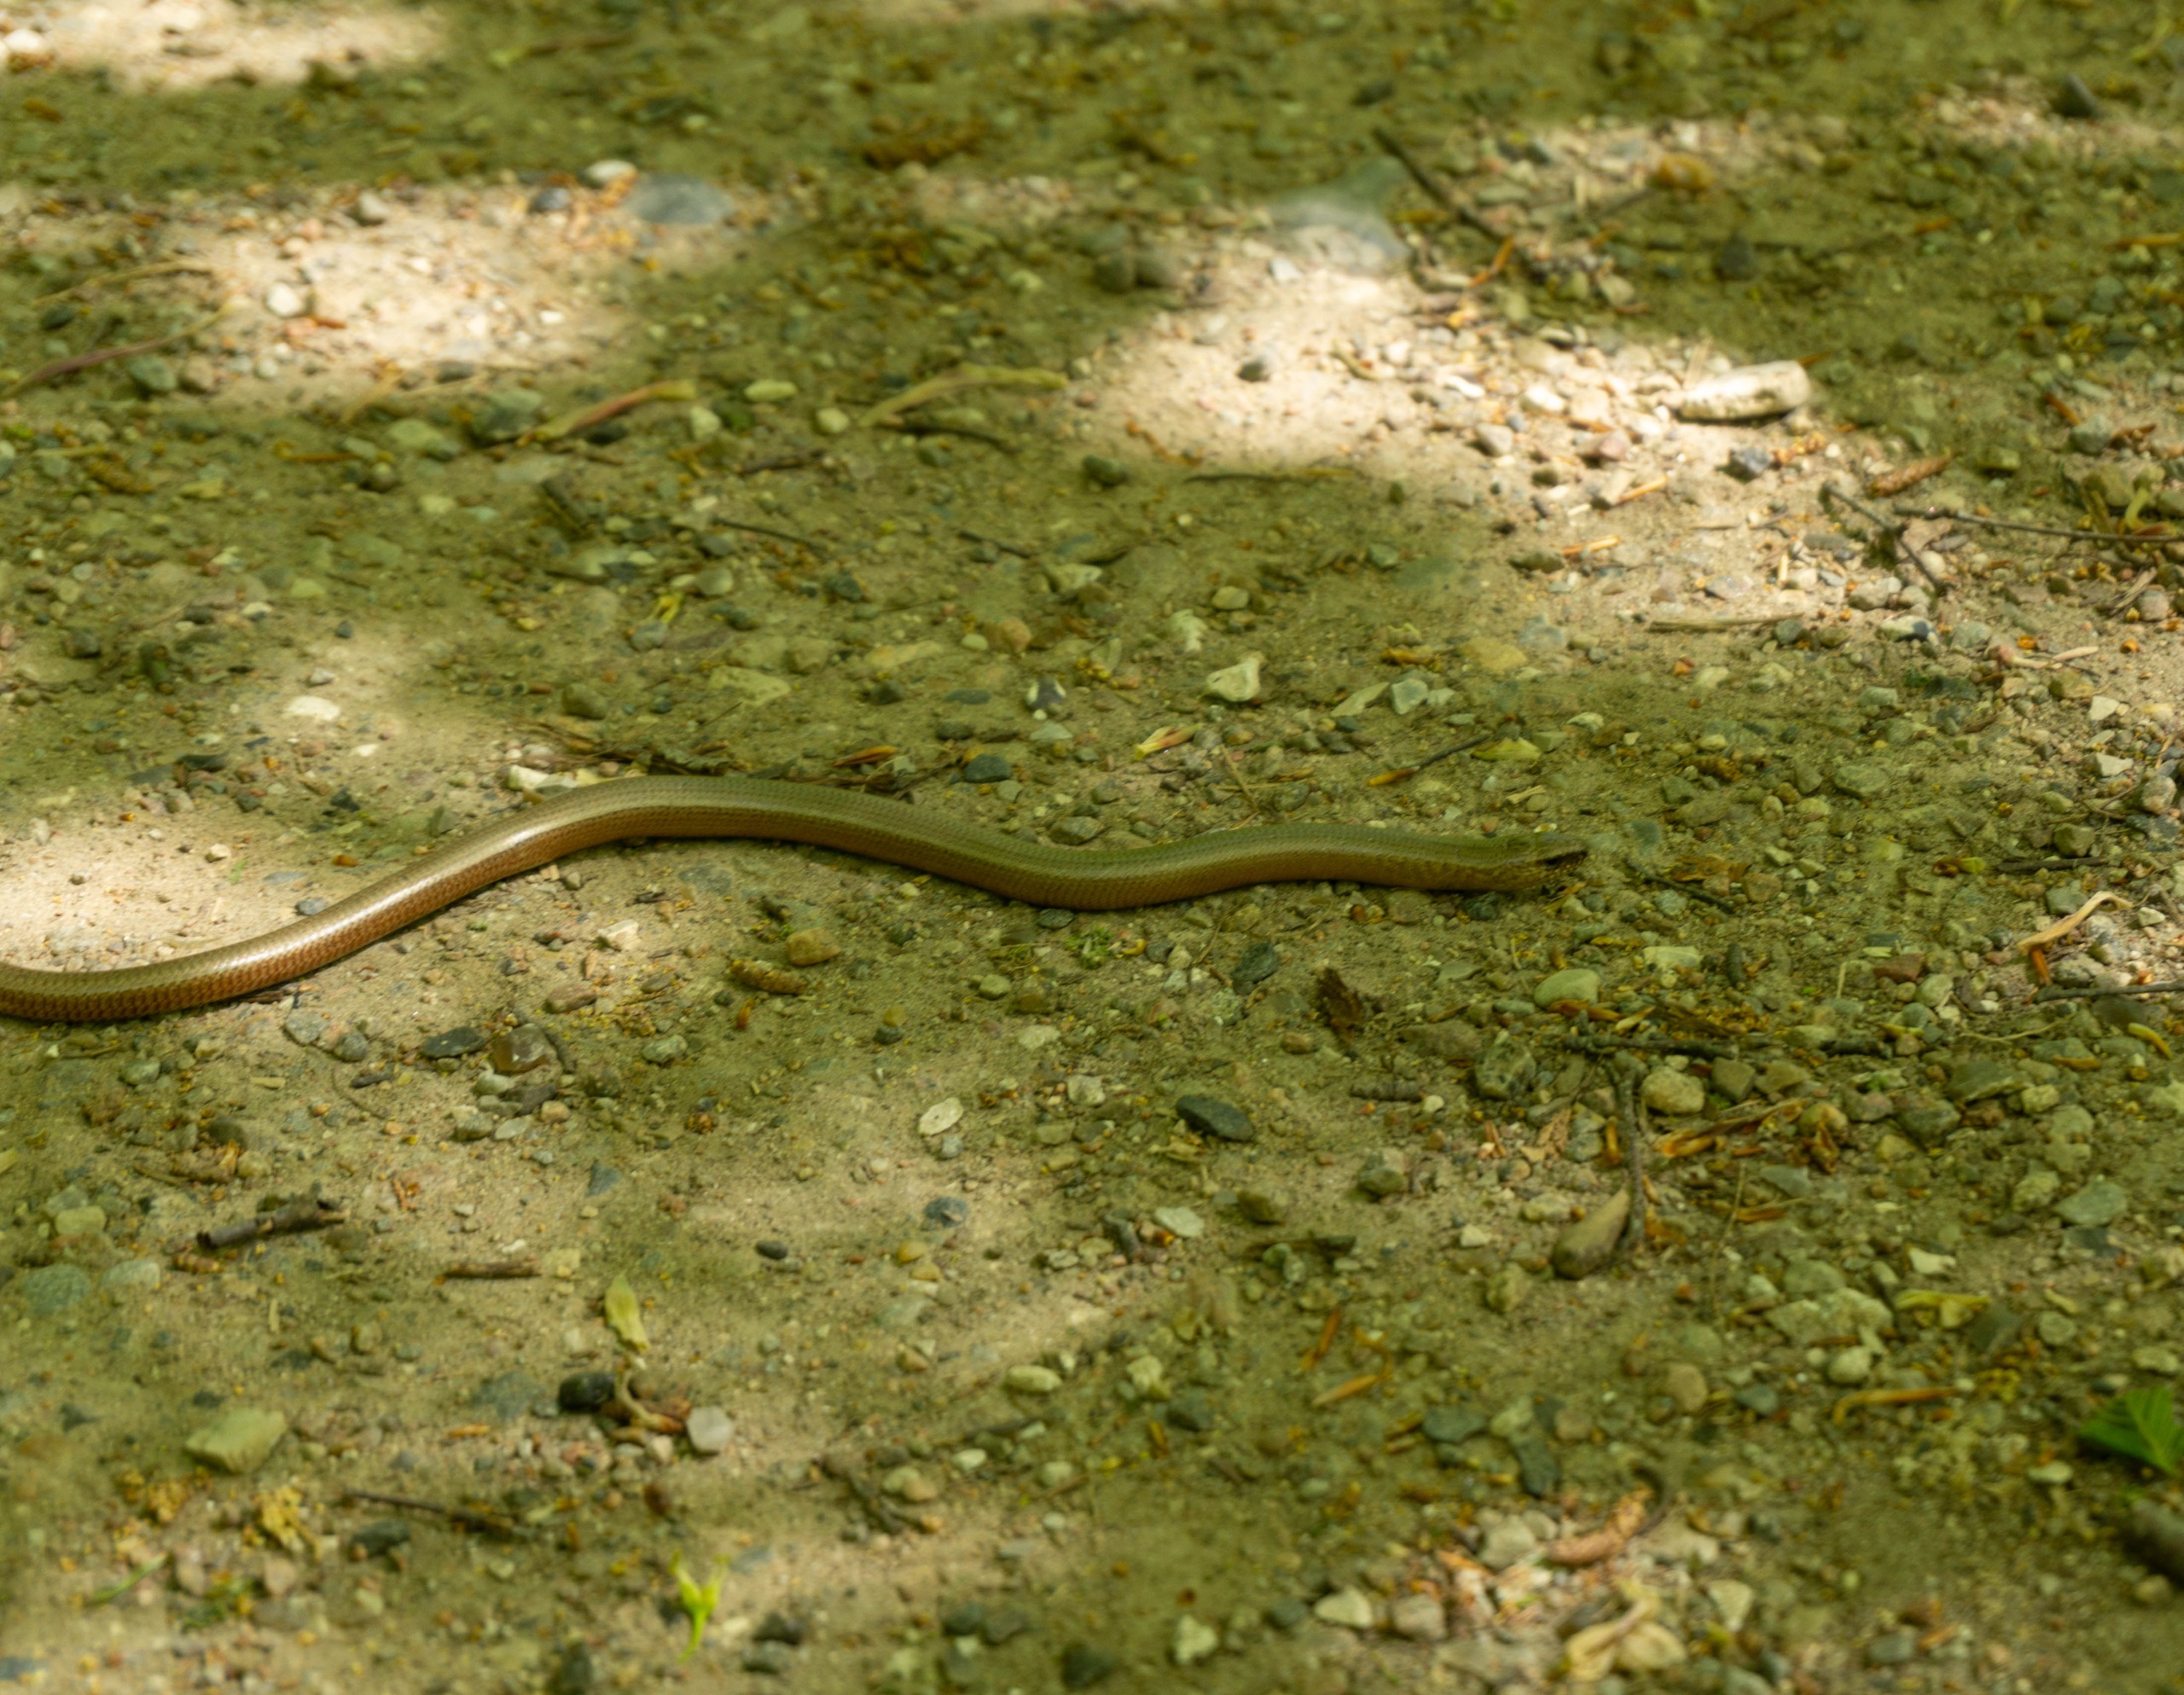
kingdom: Animalia
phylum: Chordata
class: Squamata
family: Anguidae
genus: Anguis
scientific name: Anguis fragilis
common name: Stålorm
